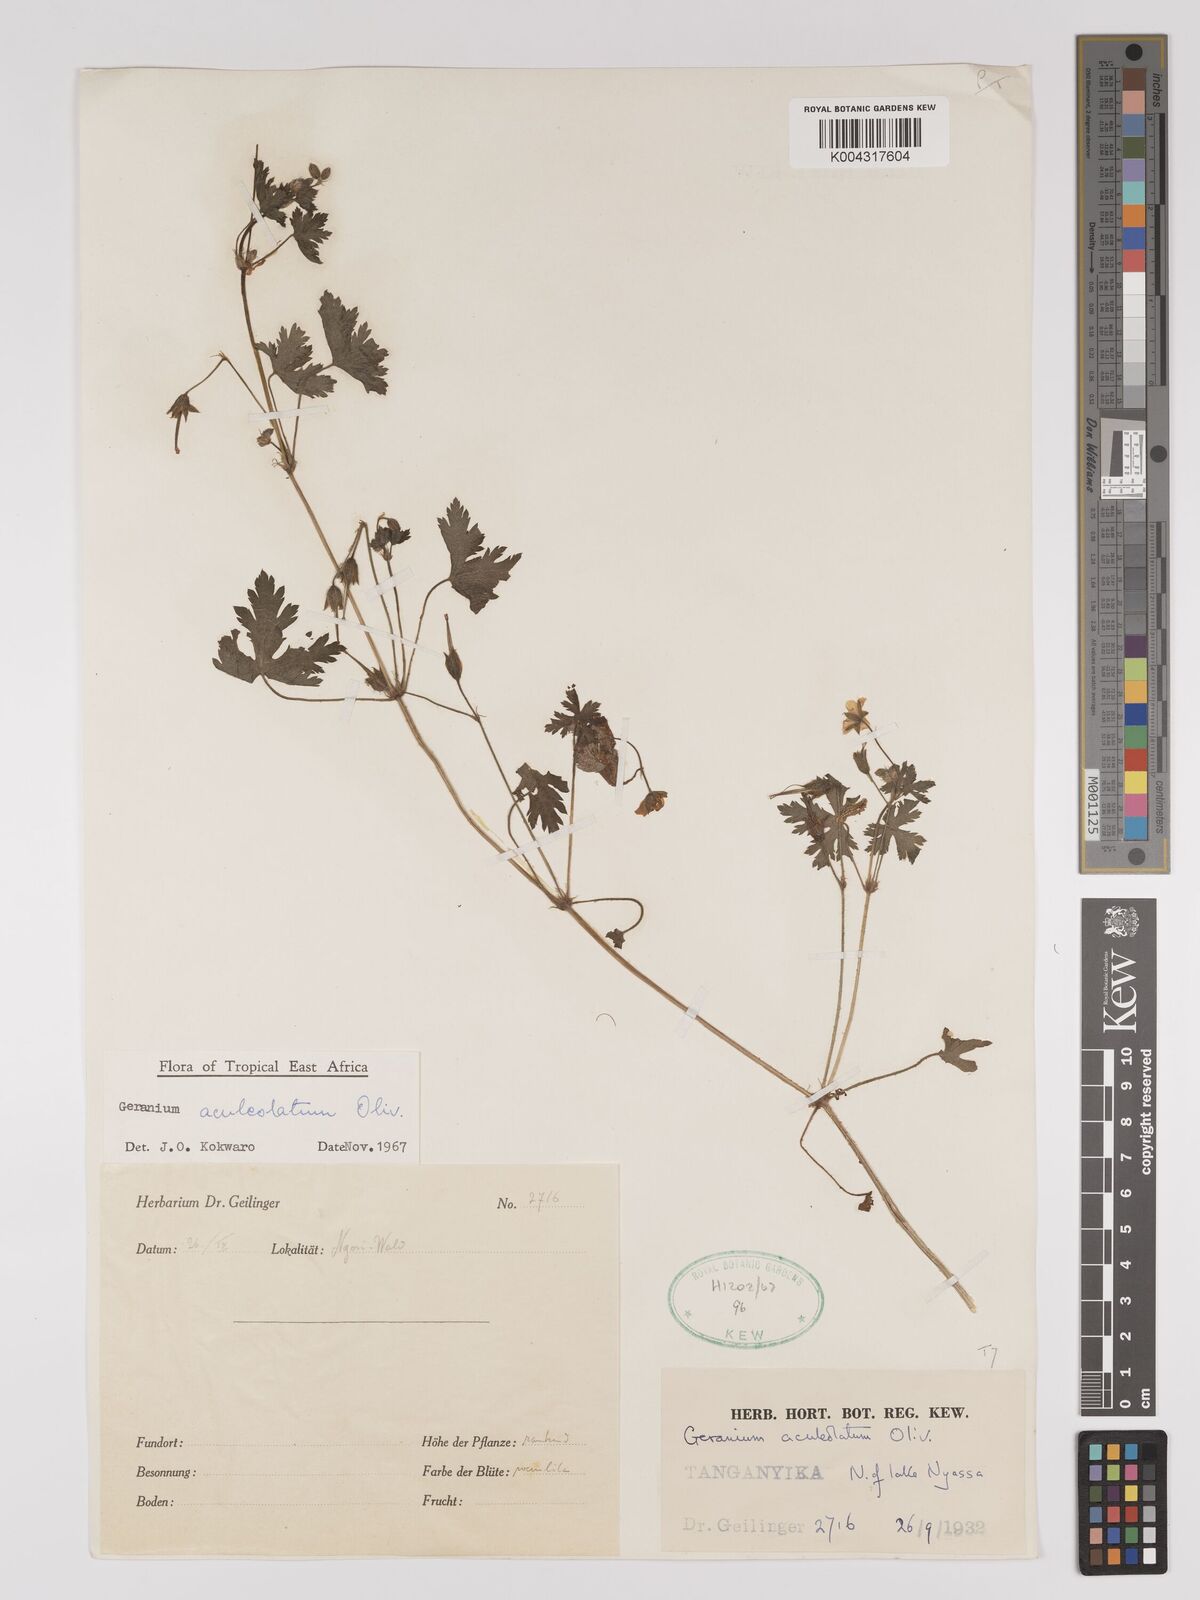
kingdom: Plantae
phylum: Tracheophyta
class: Magnoliopsida
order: Geraniales
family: Geraniaceae
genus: Geranium
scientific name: Geranium aculeolatum
